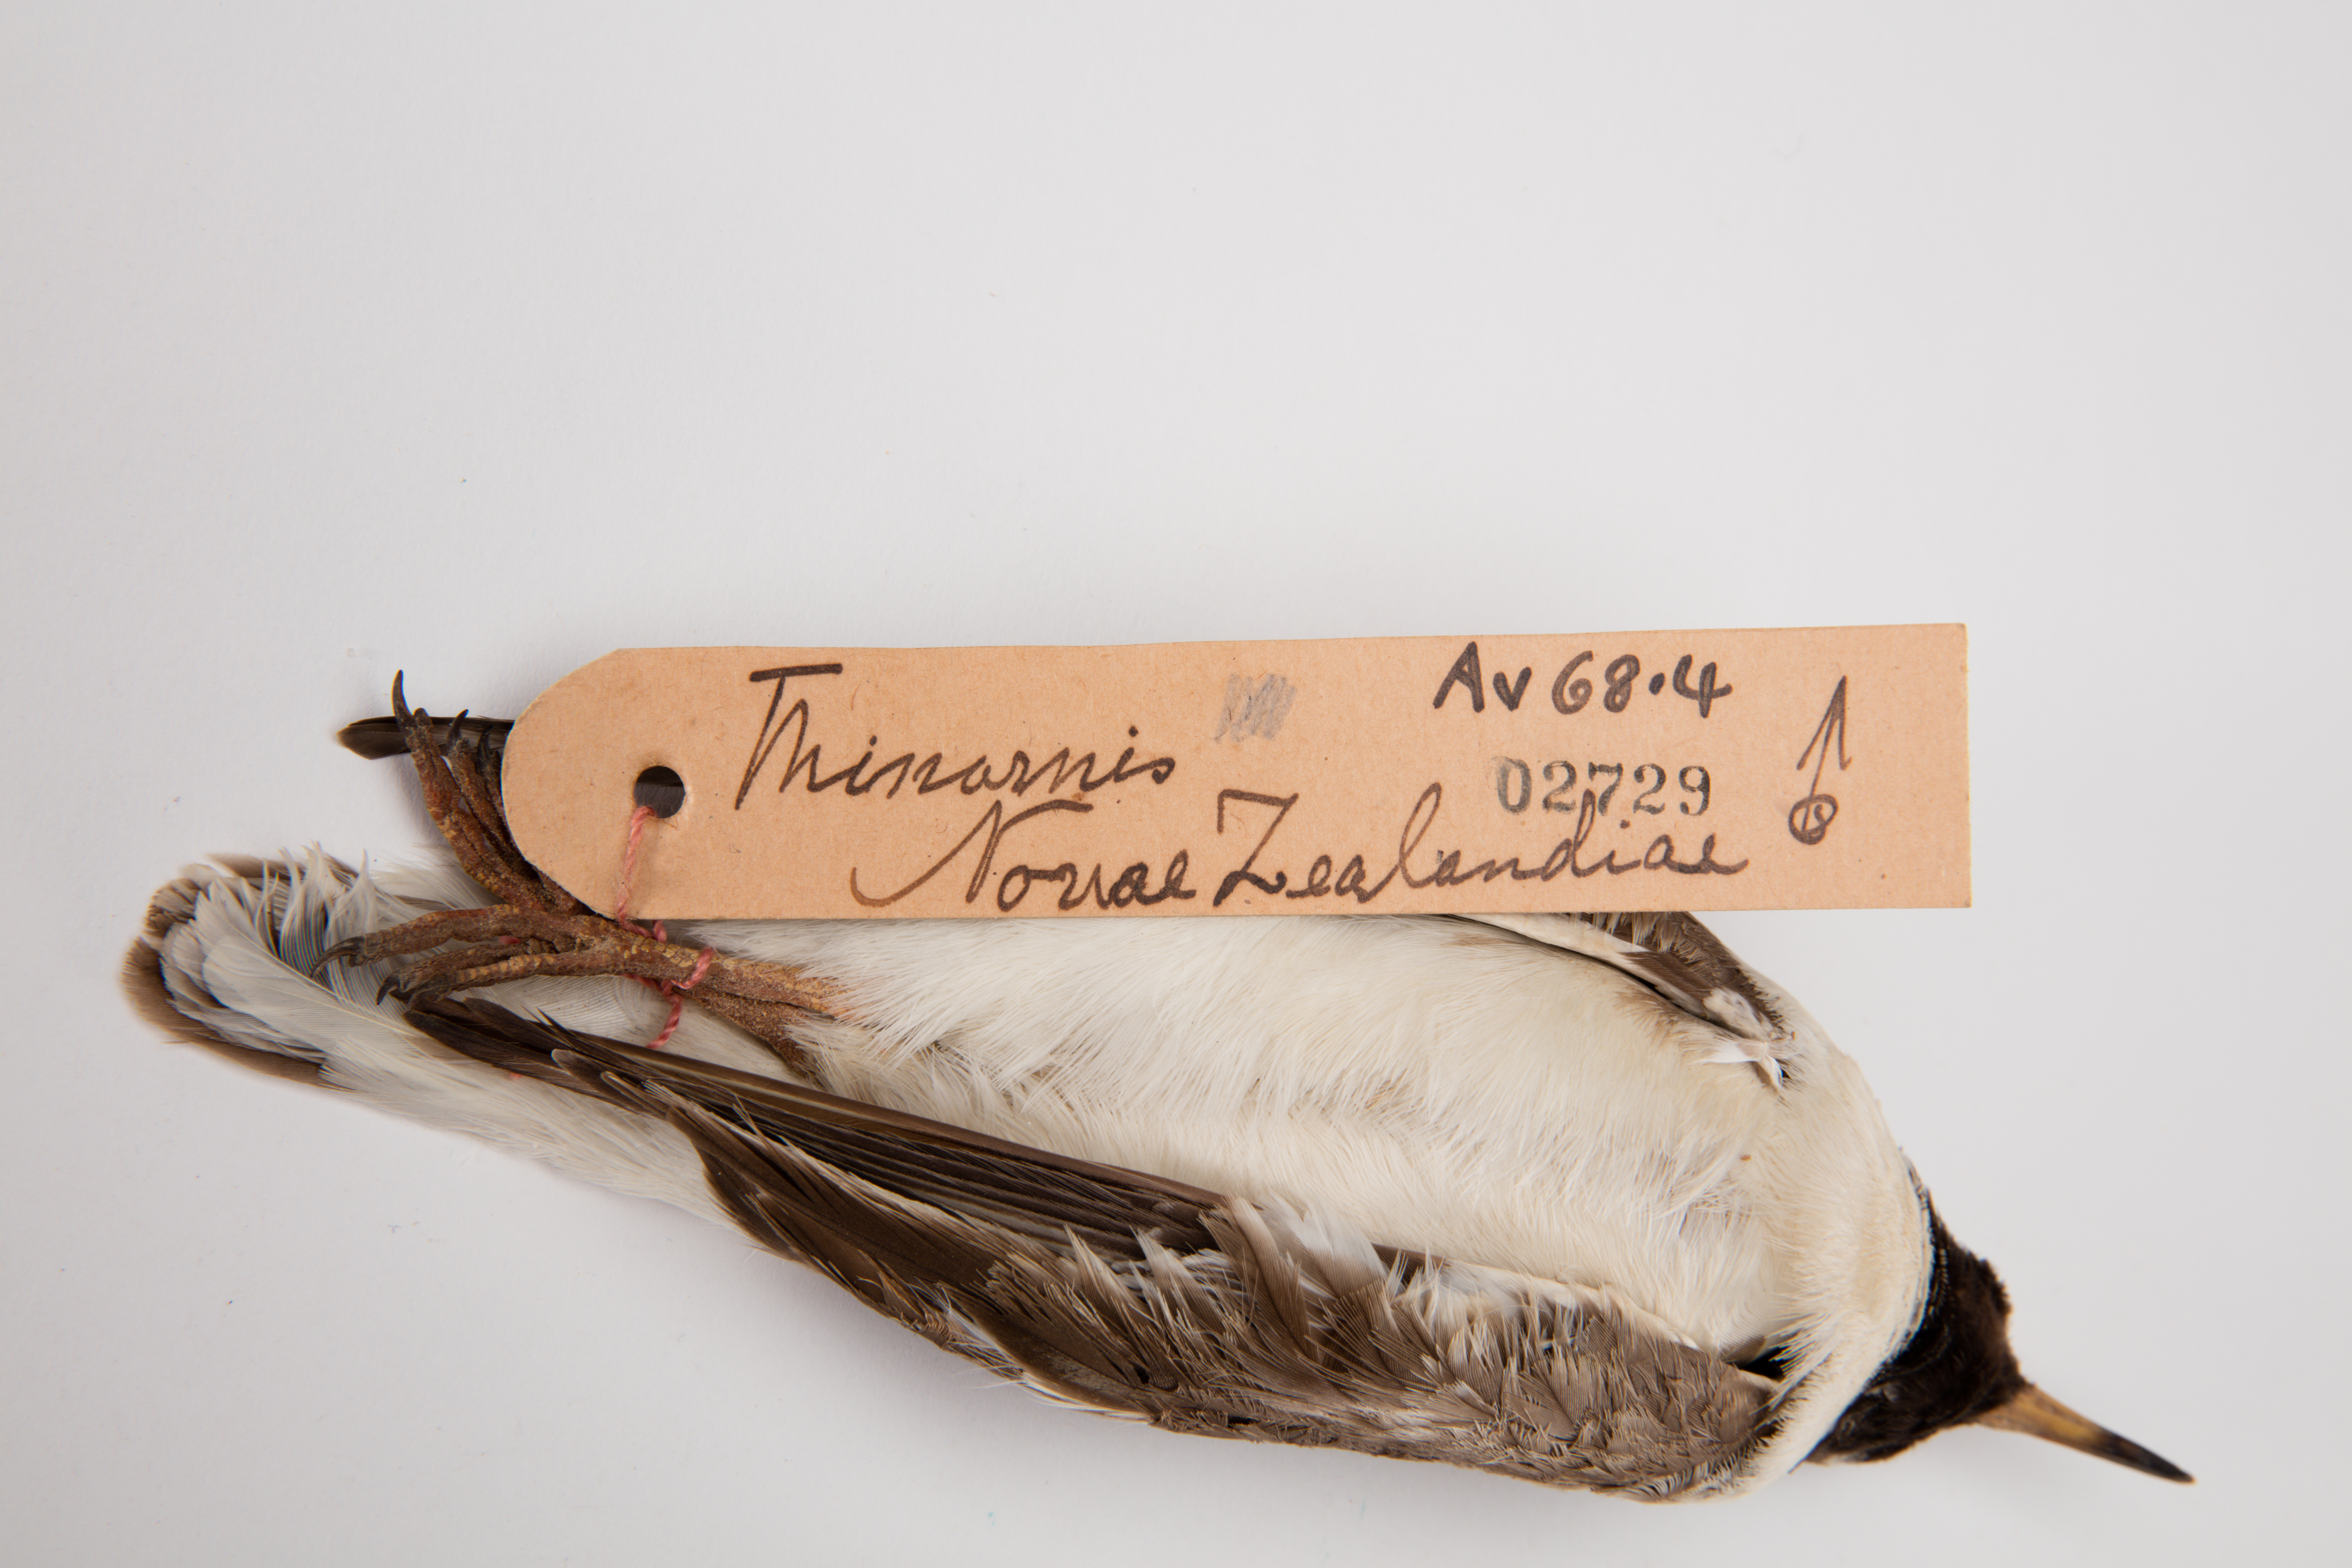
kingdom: Animalia
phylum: Chordata
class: Aves
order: Charadriiformes
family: Charadriidae
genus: Thinornis
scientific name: Thinornis novaeseelandiae
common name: Shore dotterel
